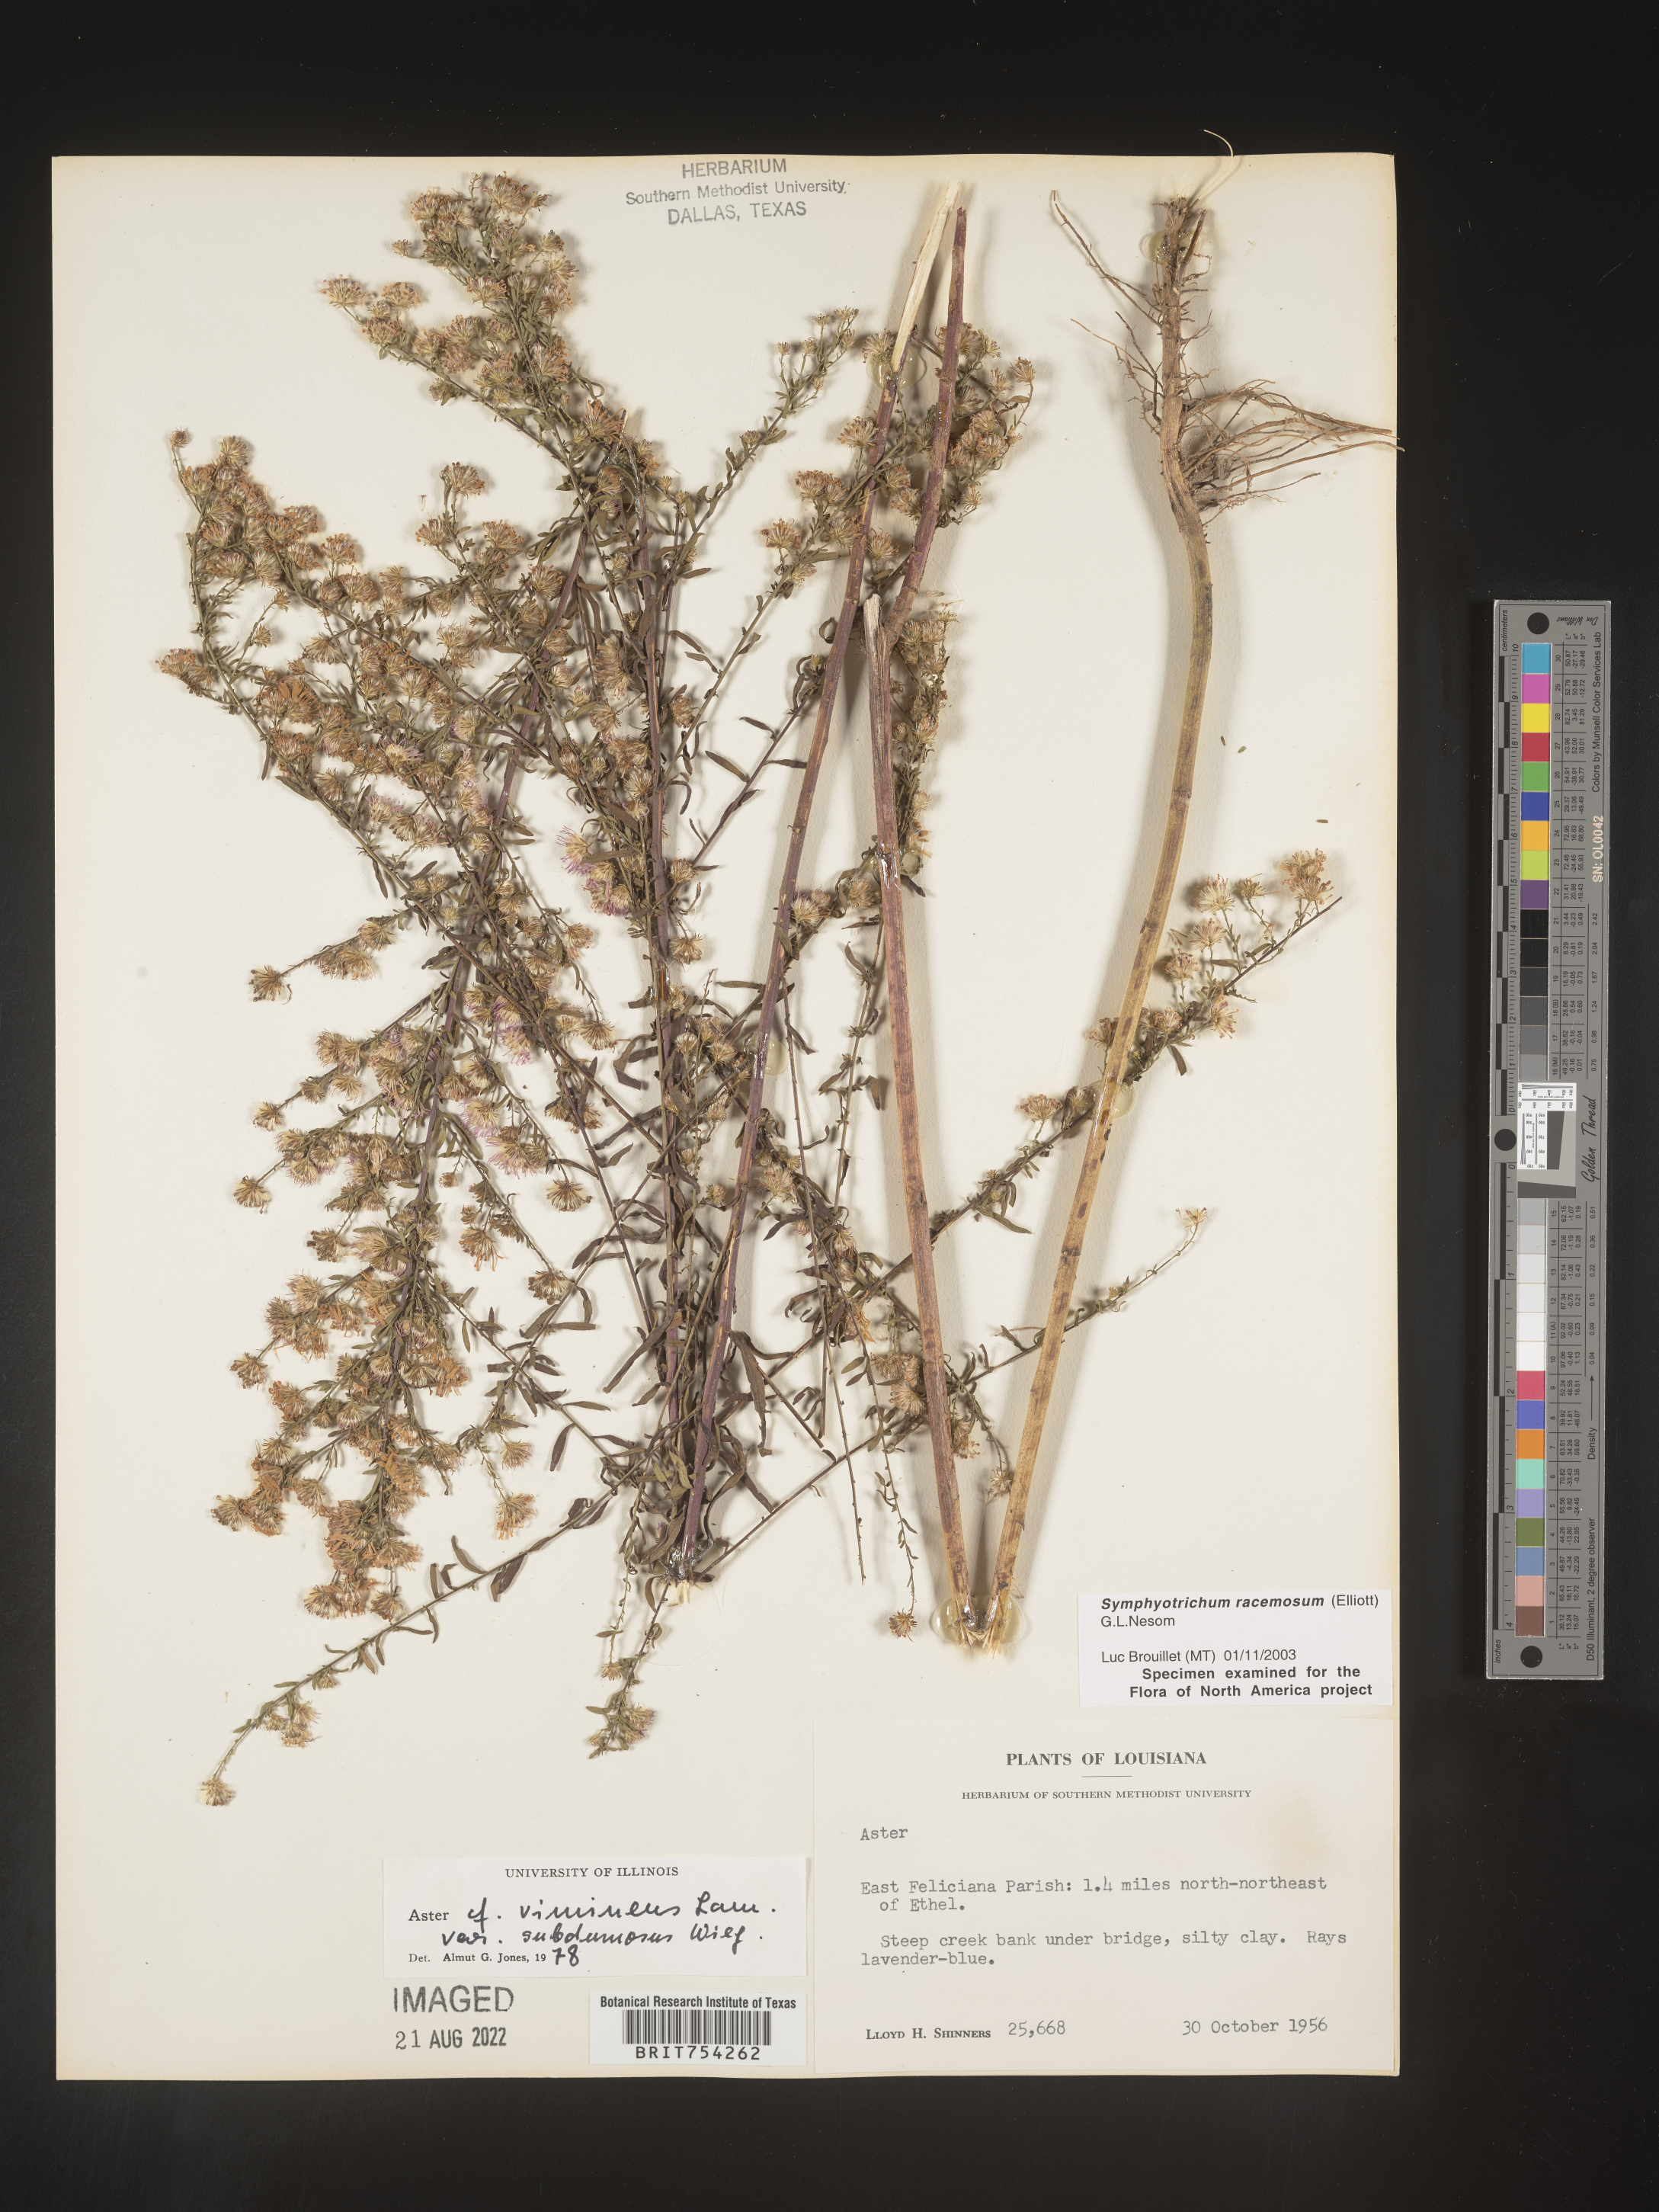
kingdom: Plantae
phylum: Tracheophyta
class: Magnoliopsida
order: Asterales
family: Asteraceae
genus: Symphyotrichum
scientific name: Symphyotrichum racemosum
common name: Small white aster
